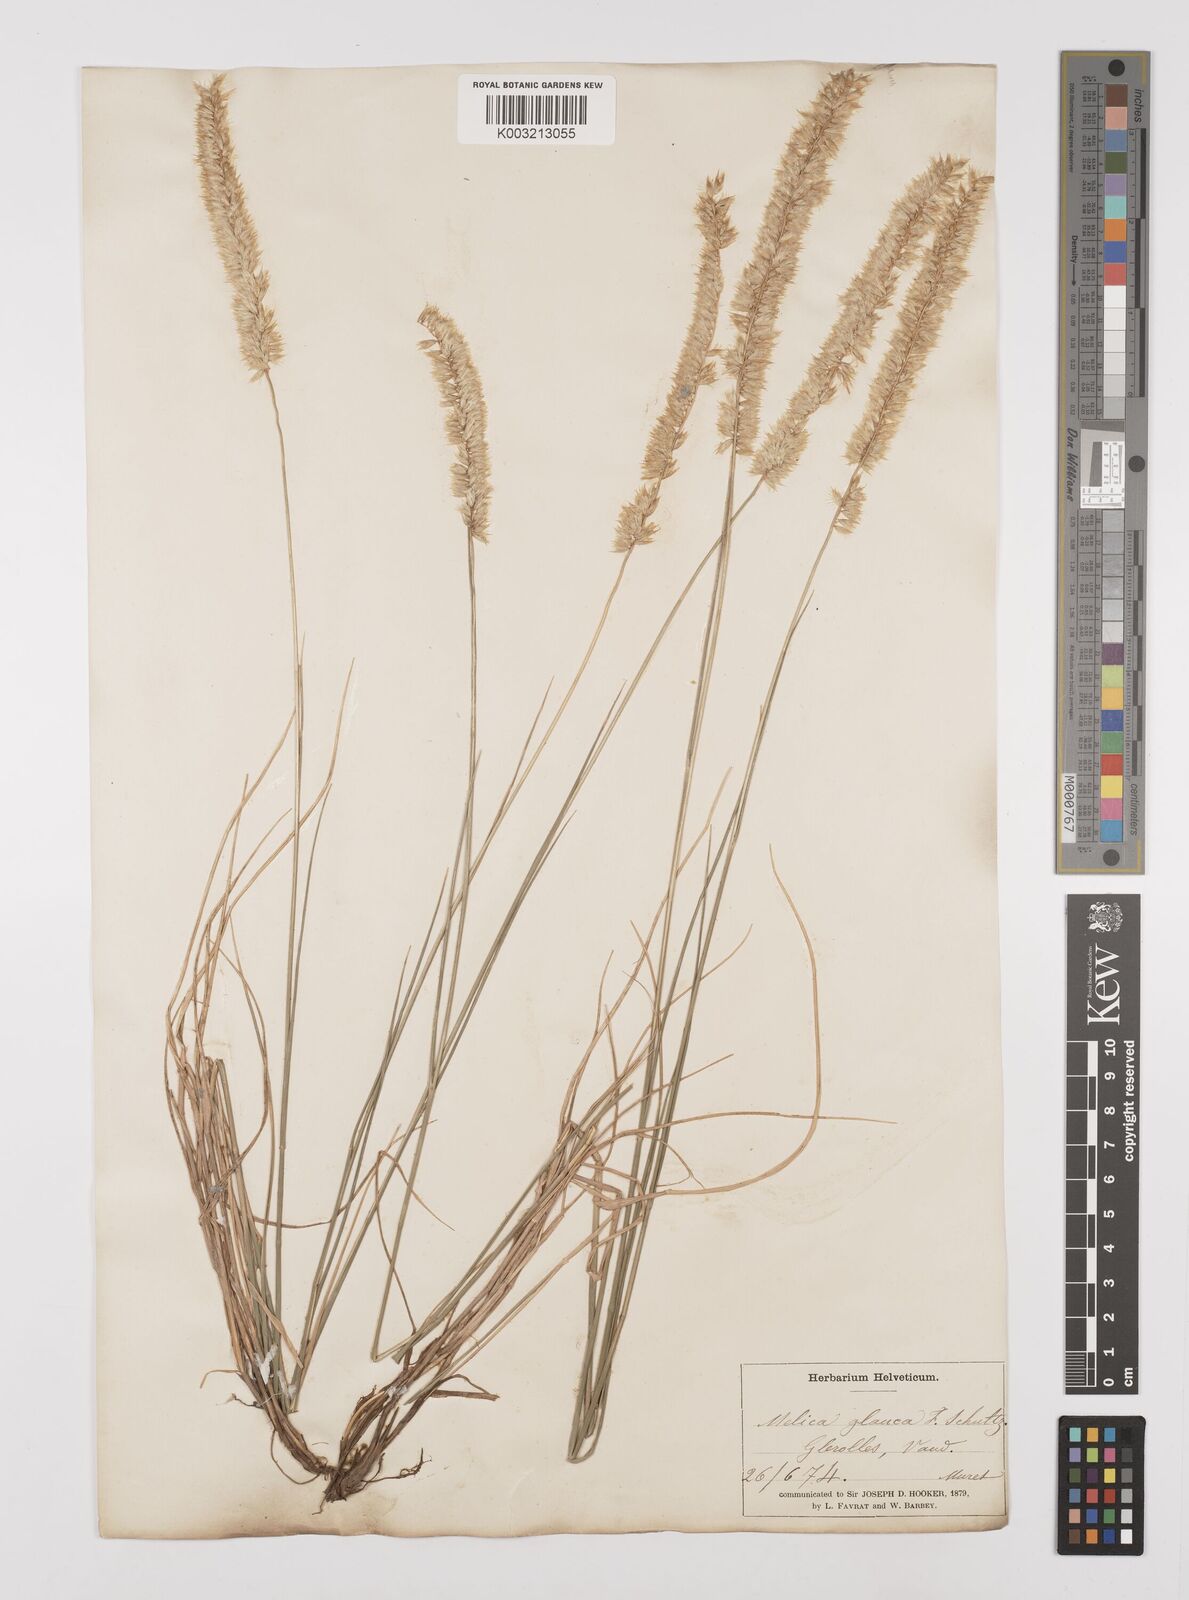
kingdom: Plantae
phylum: Tracheophyta
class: Liliopsida
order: Poales
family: Poaceae
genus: Melica
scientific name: Melica ciliata
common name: Hairy melicgrass
